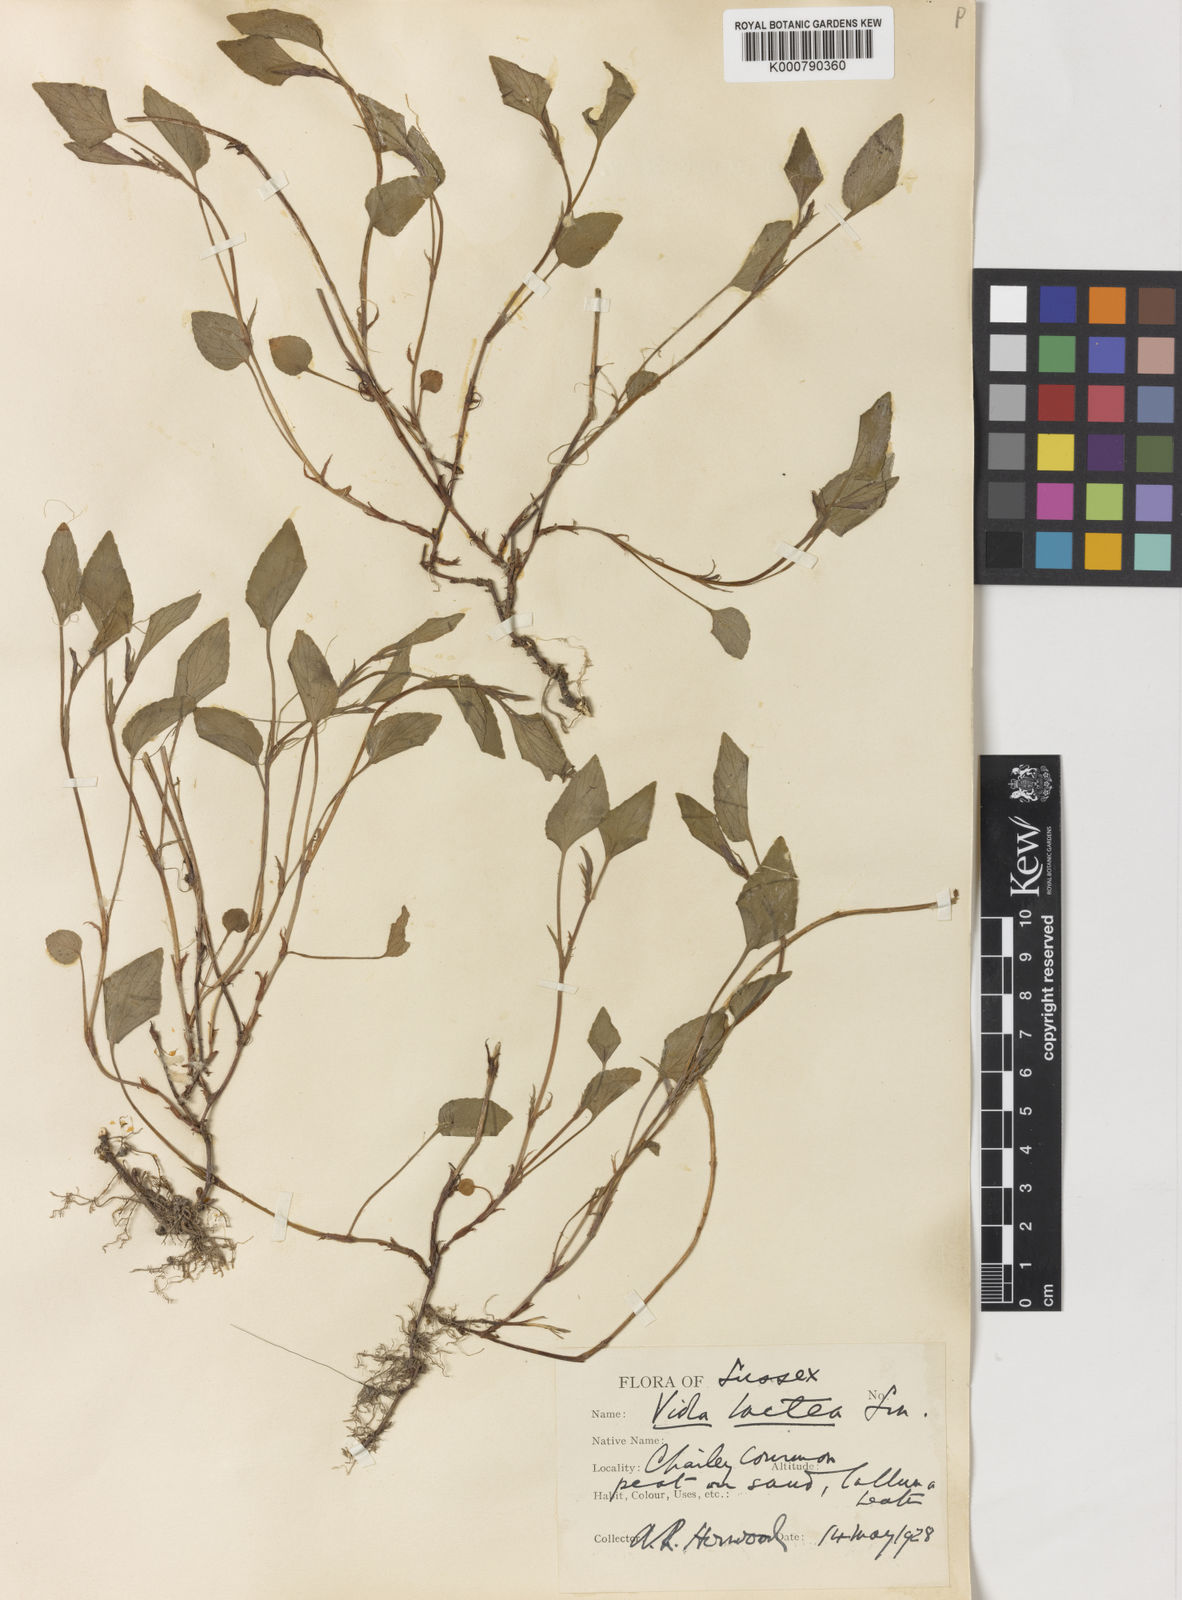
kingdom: Plantae
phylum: Tracheophyta
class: Magnoliopsida
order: Malpighiales
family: Violaceae
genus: Viola
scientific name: Viola lactea
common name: Pale dog-violet
